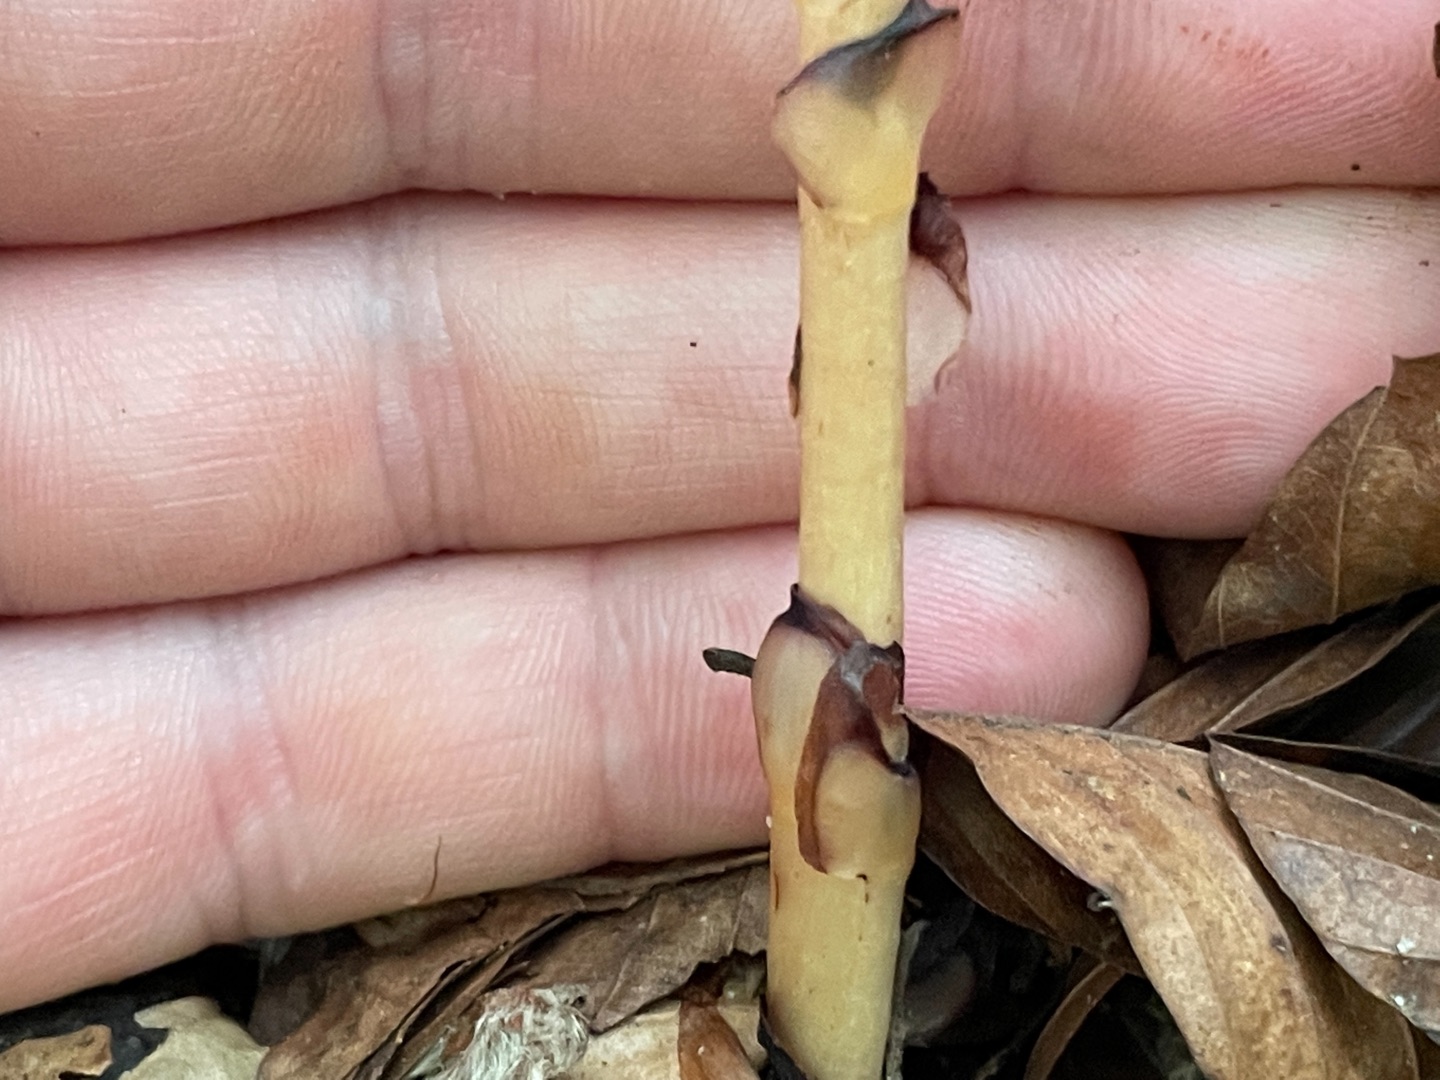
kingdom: Plantae
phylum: Tracheophyta
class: Magnoliopsida
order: Ericales
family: Ericaceae
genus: Hypopitys
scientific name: Hypopitys monotropa
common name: Snylterod
